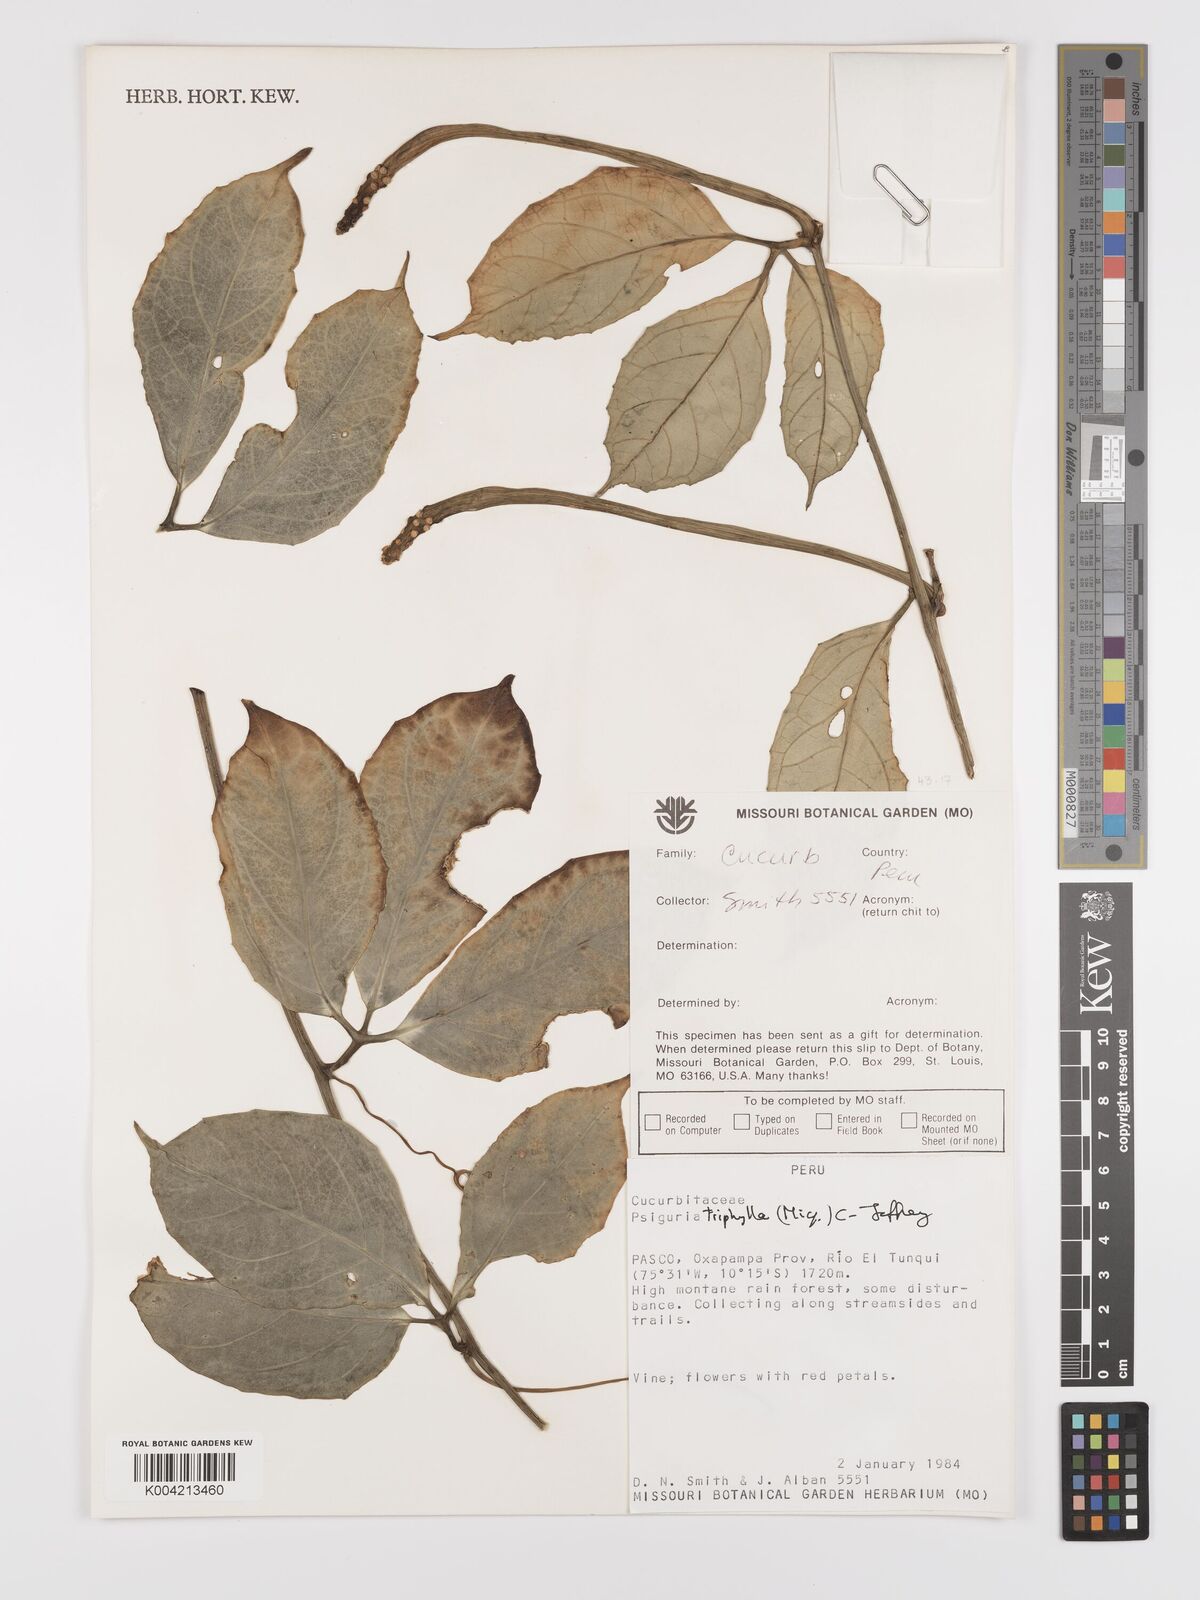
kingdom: Plantae
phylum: Tracheophyta
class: Magnoliopsida
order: Cucurbitales
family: Cucurbitaceae
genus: Psiguria
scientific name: Psiguria triphylla
